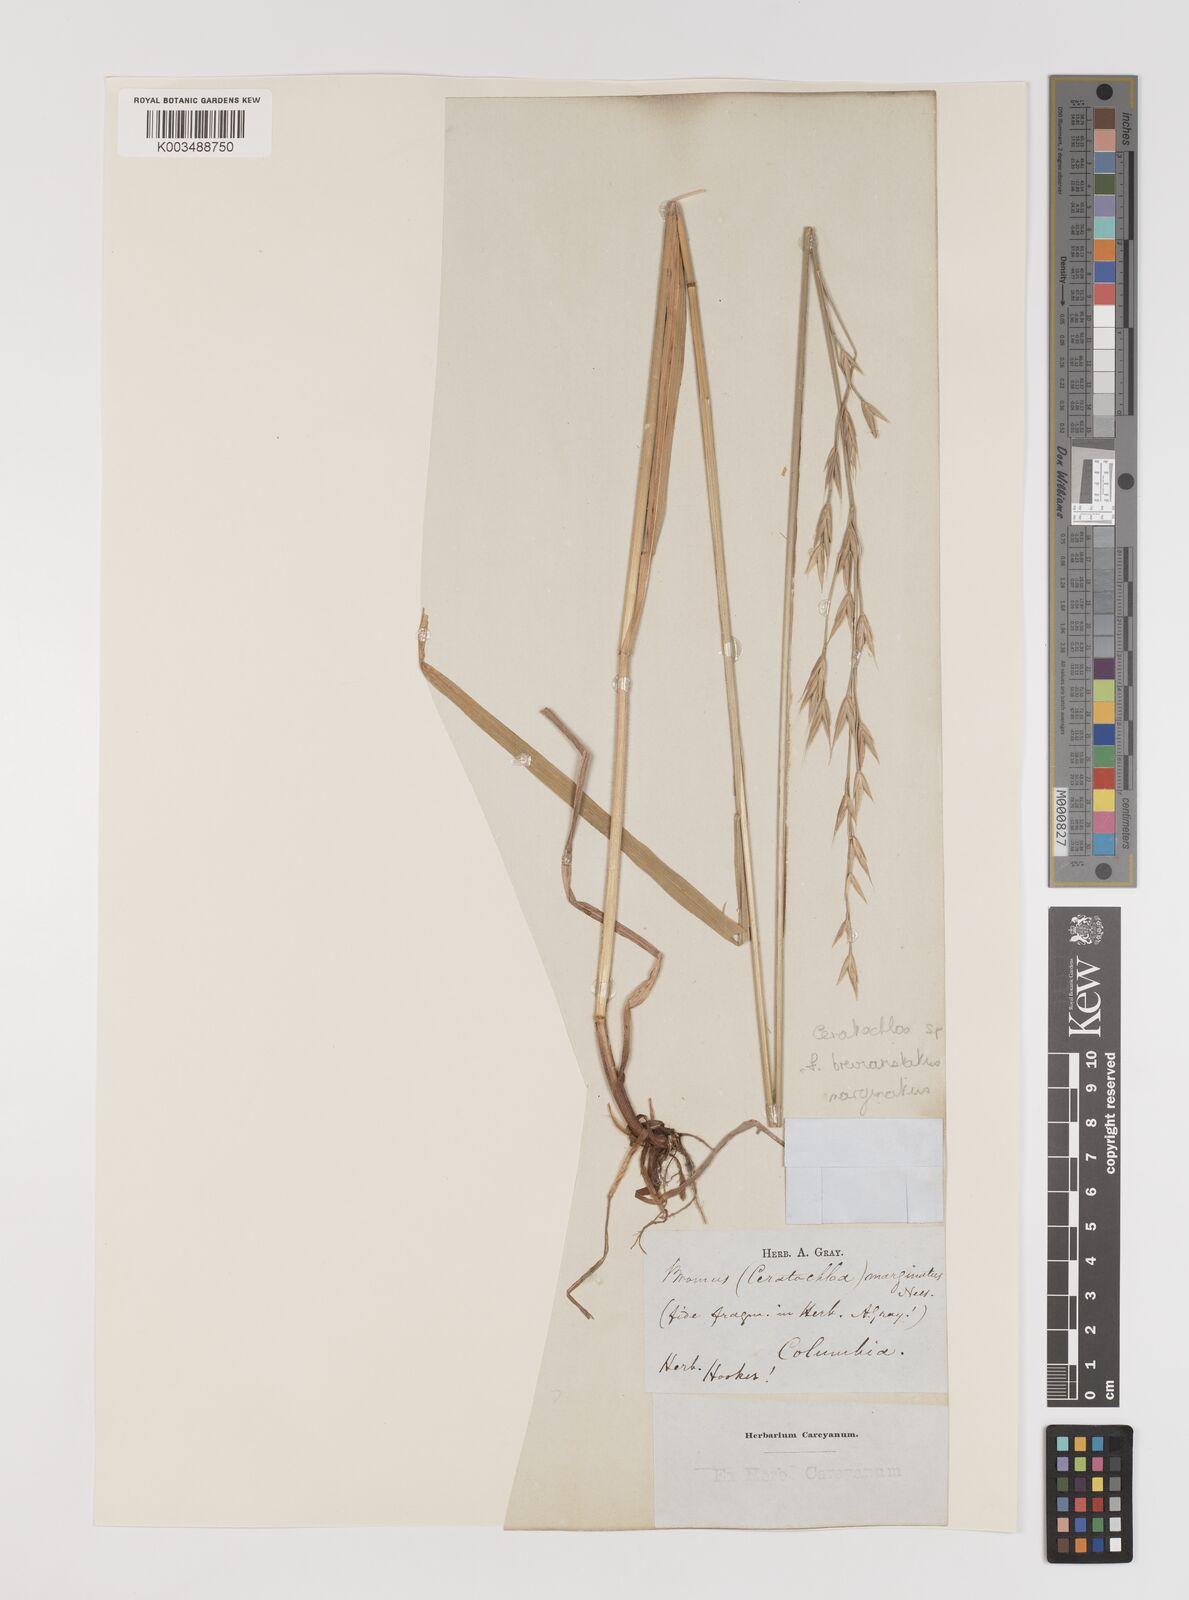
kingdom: Plantae
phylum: Tracheophyta
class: Liliopsida
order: Poales
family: Poaceae
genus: Bromus
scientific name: Bromus
